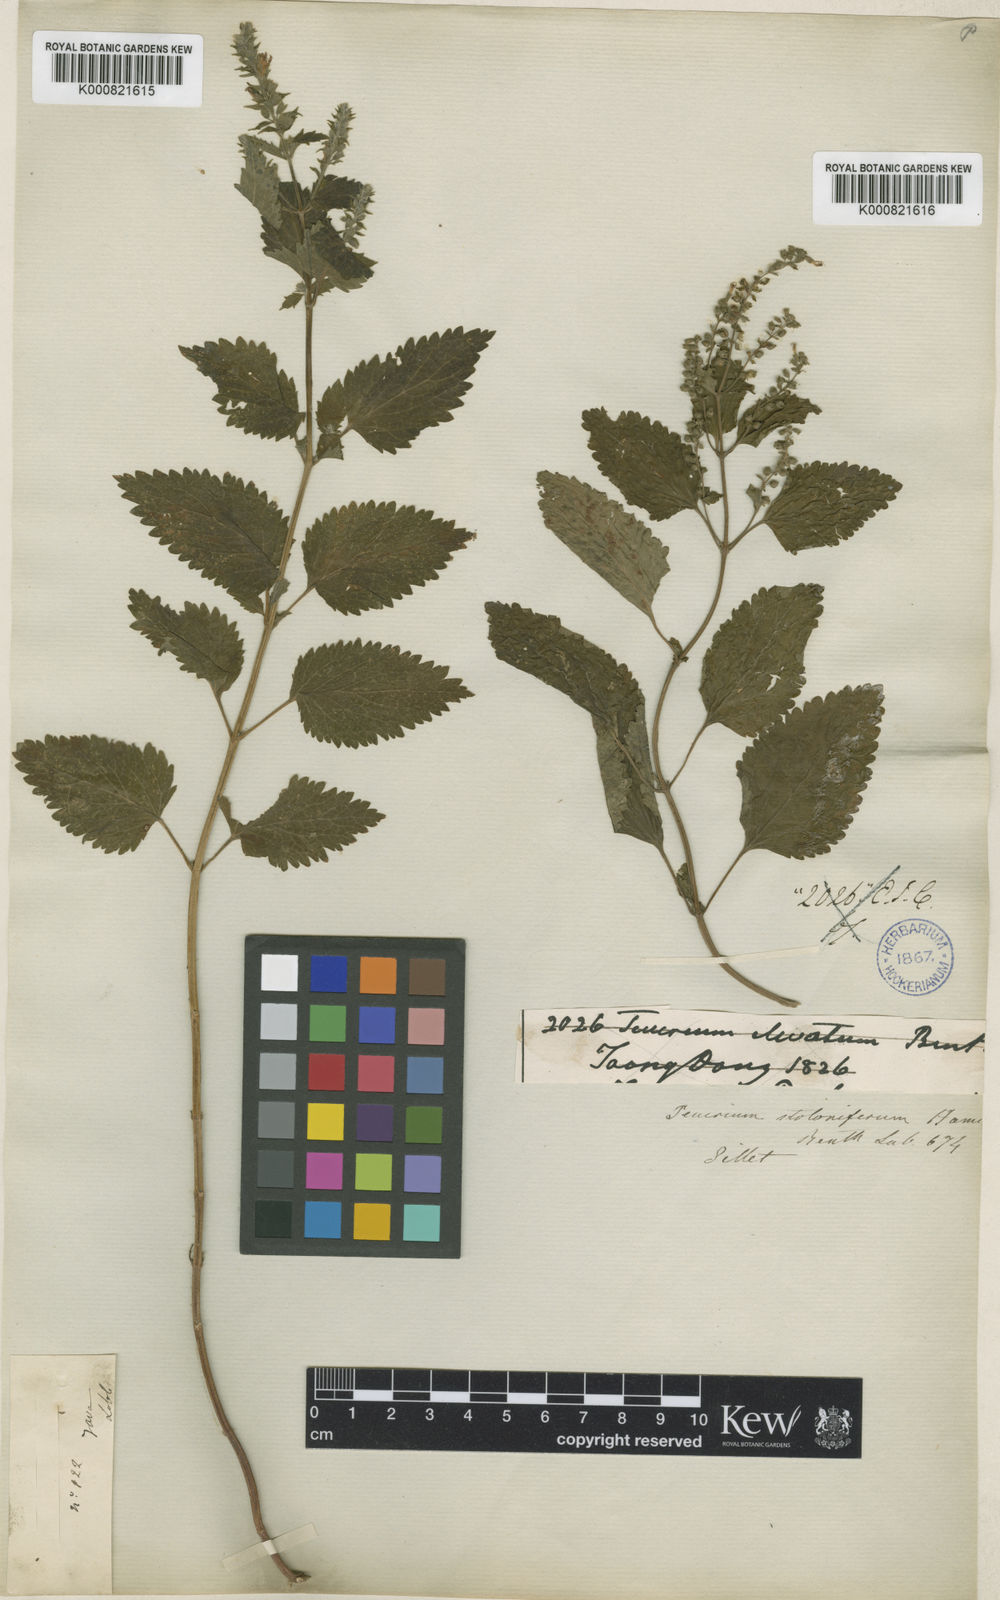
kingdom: Plantae
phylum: Tracheophyta
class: Magnoliopsida
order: Lamiales
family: Lamiaceae
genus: Teucrium
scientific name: Teucrium viscidum
